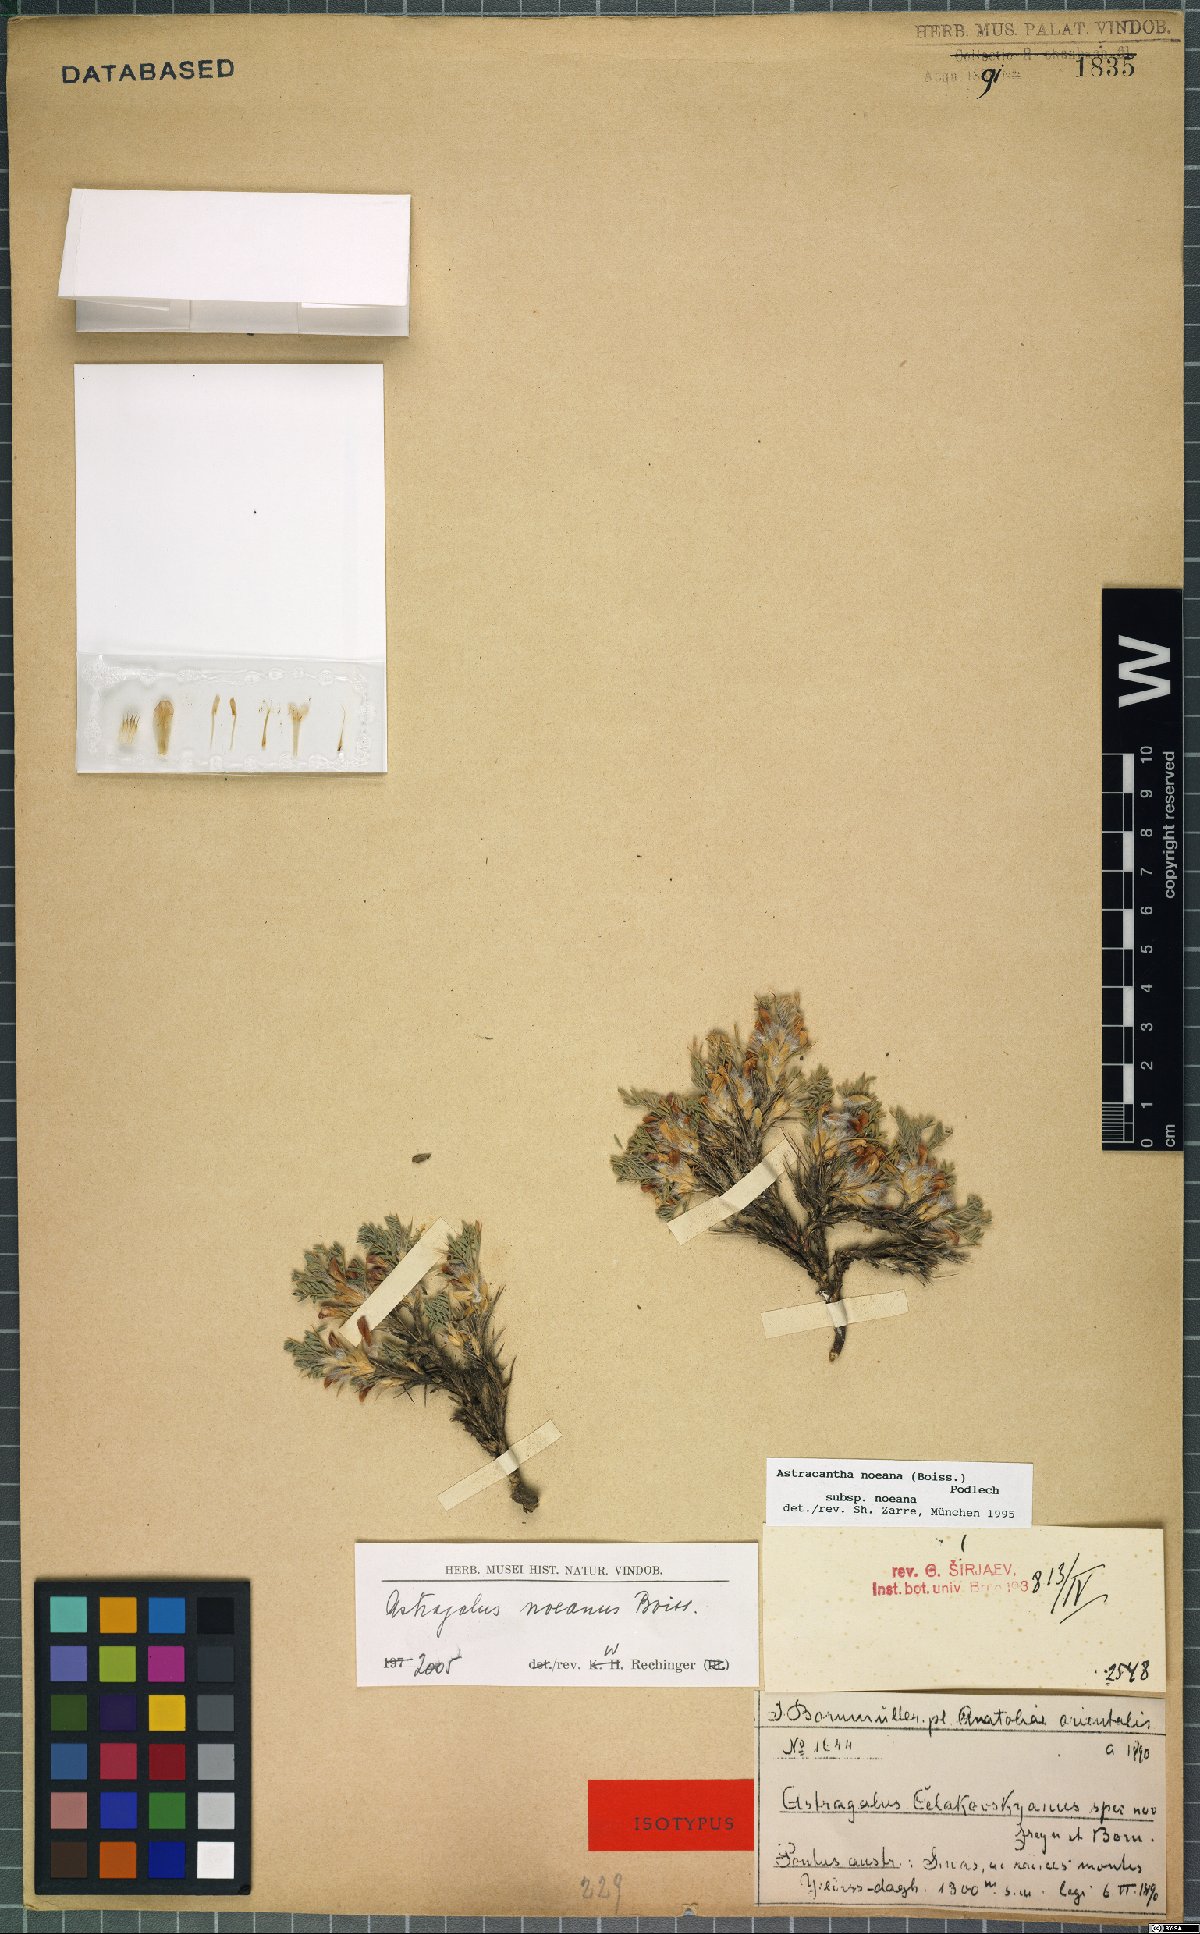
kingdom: Plantae
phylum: Tracheophyta
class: Magnoliopsida
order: Fabales
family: Fabaceae
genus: Astragalus
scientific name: Astragalus noeanus
